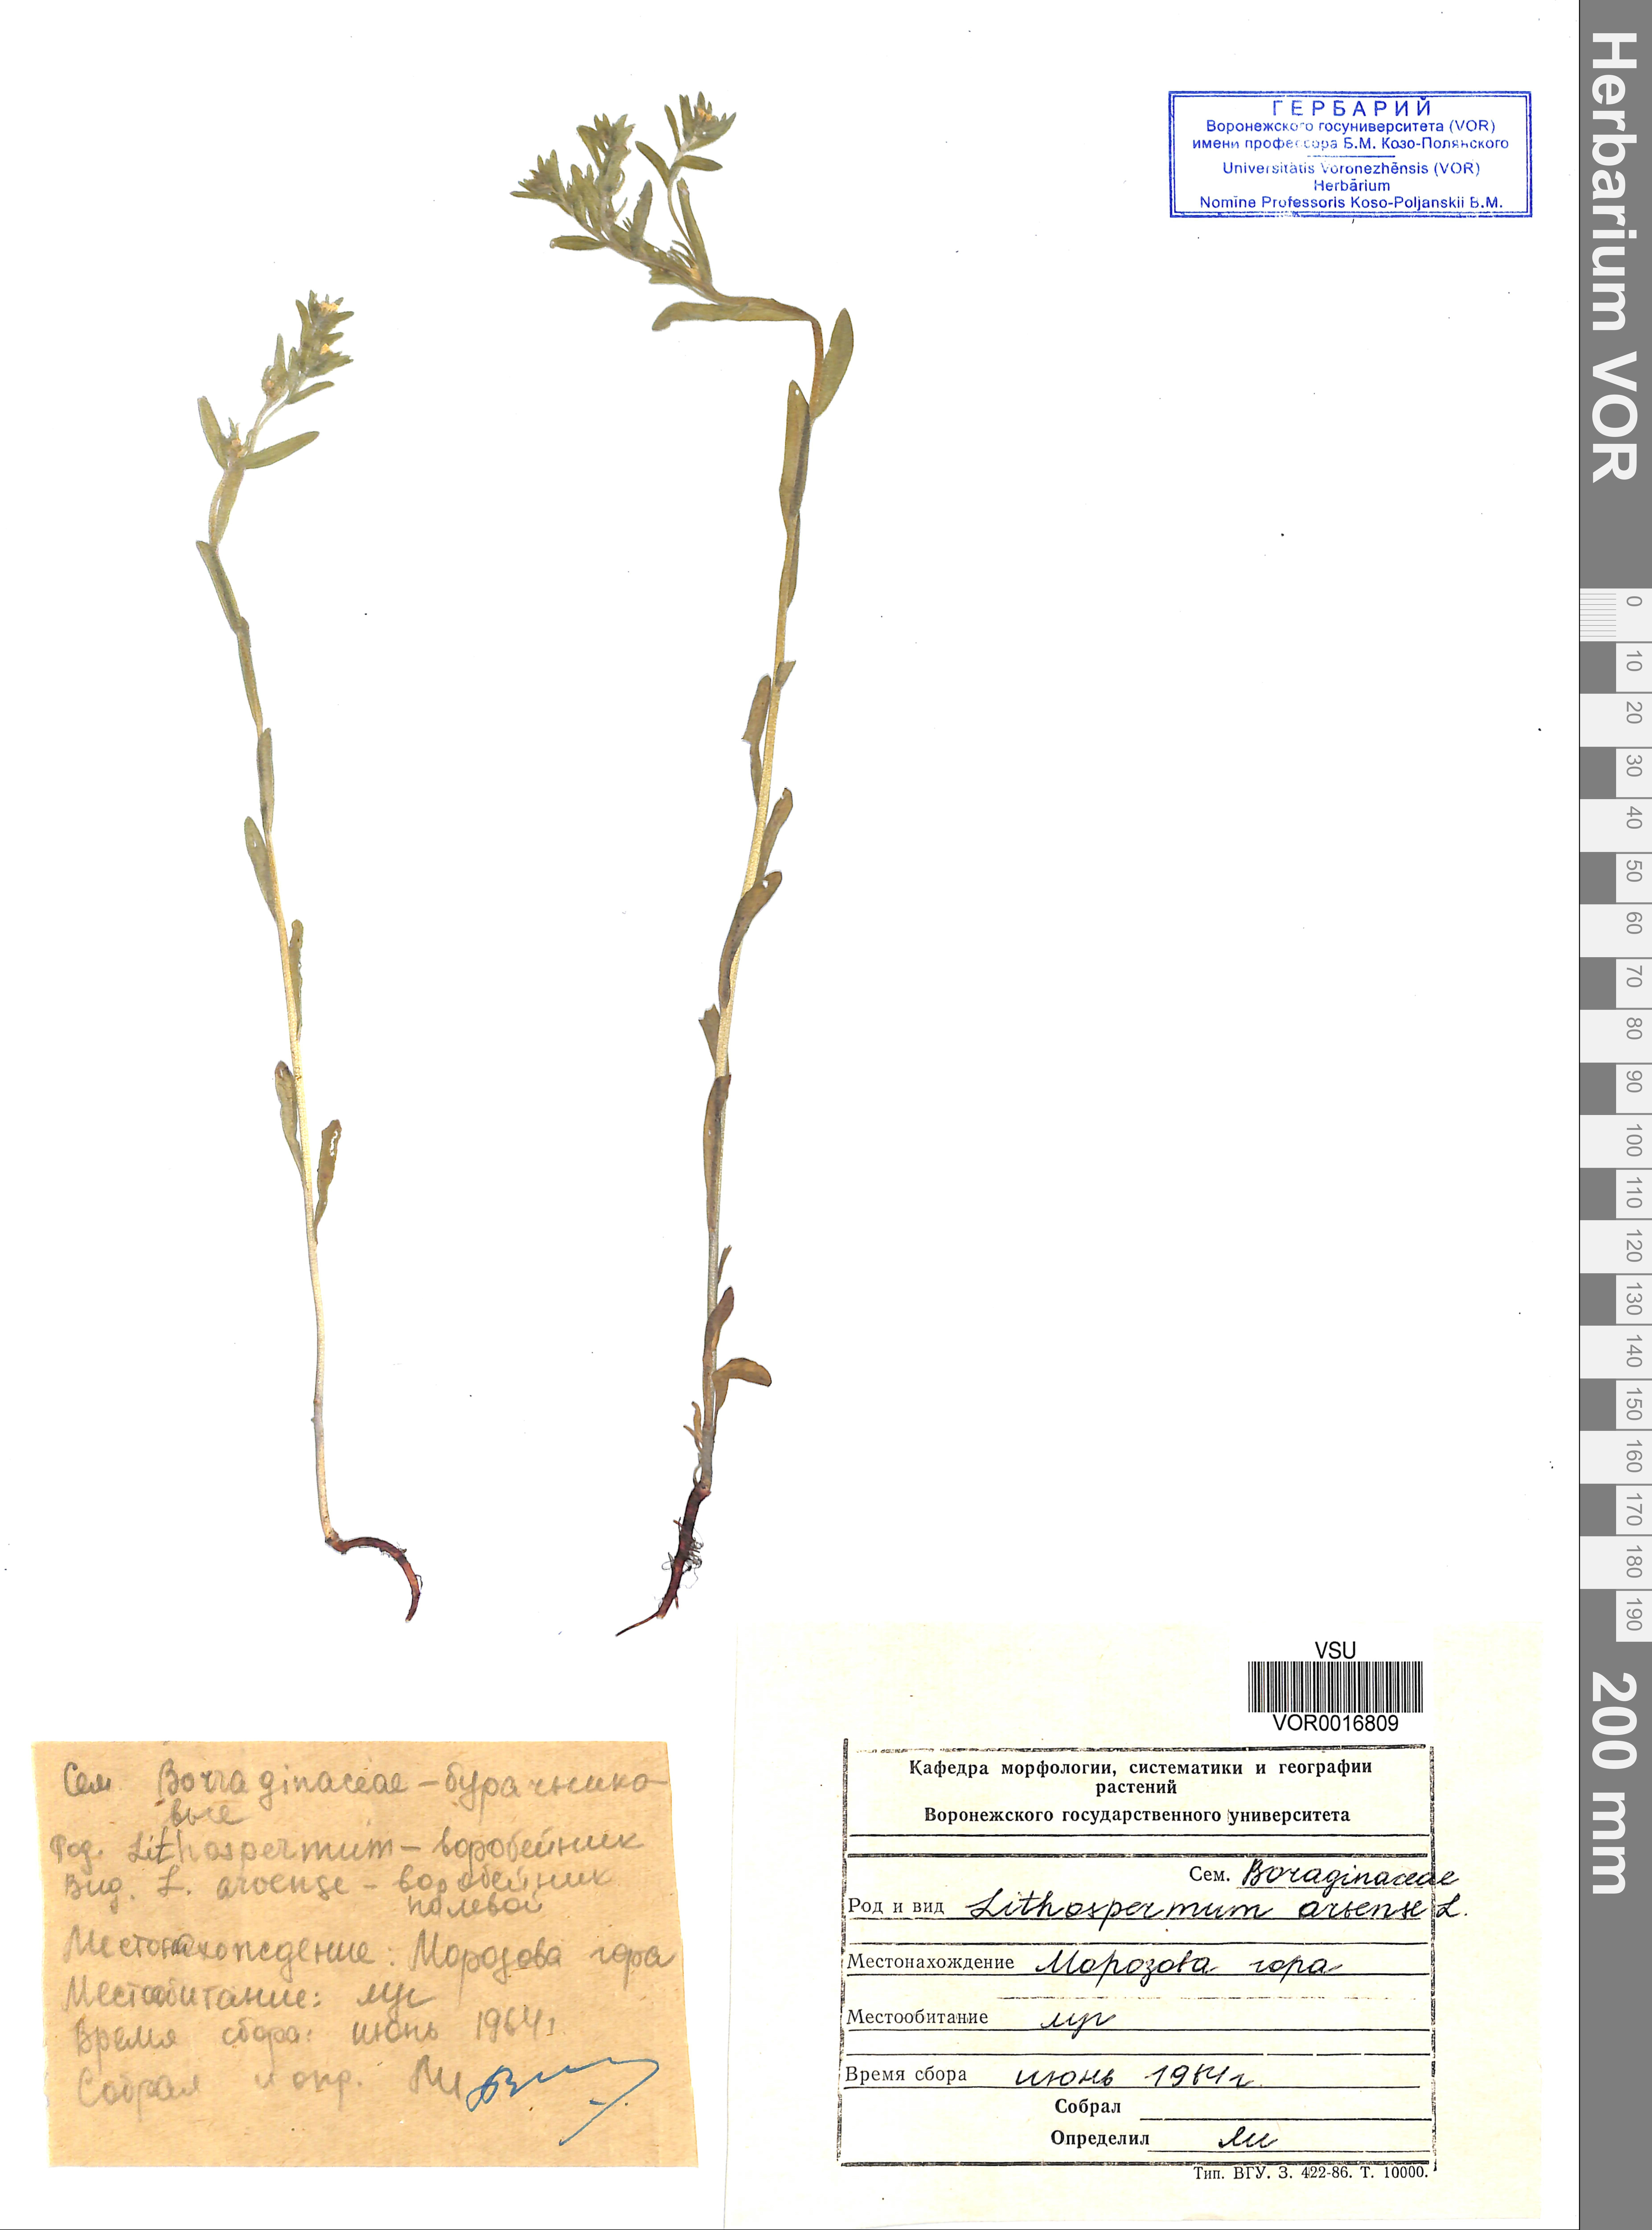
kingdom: Plantae
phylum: Tracheophyta
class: Magnoliopsida
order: Boraginales
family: Boraginaceae
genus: Buglossoides
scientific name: Buglossoides arvensis
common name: Corn gromwell
